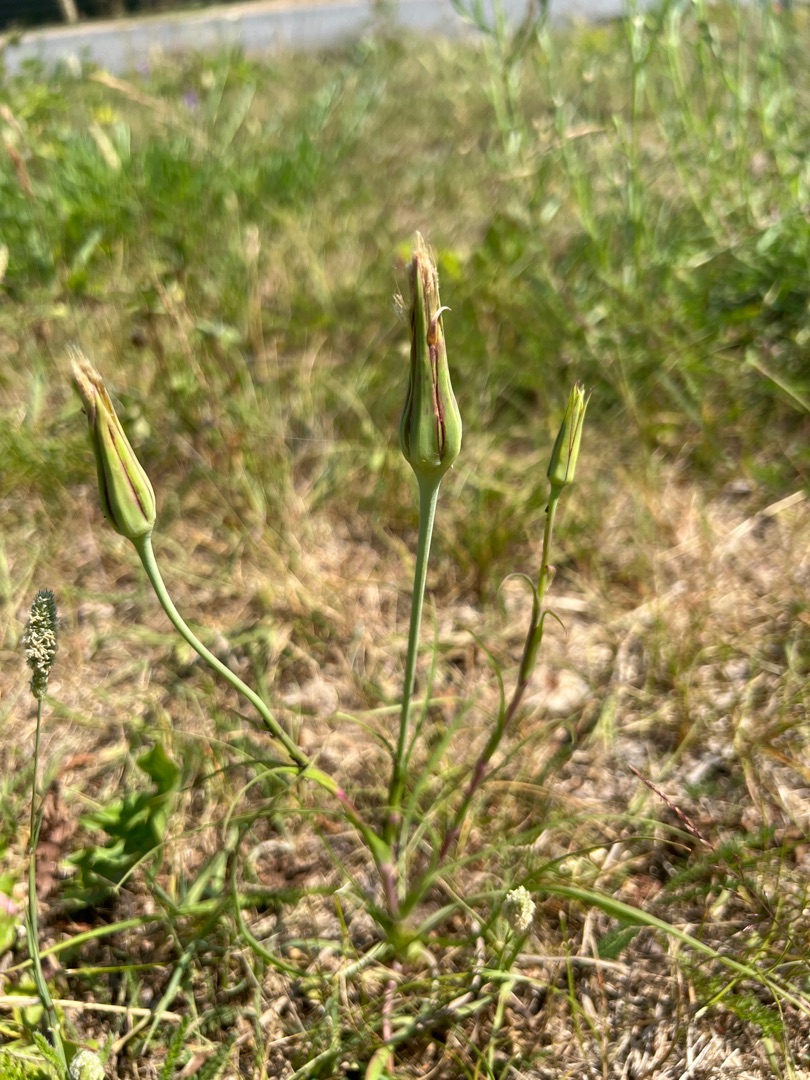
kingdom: Plantae
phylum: Tracheophyta
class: Magnoliopsida
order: Asterales
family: Asteraceae
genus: Tragopogon
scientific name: Tragopogon pratensis
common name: Gedeskæg
